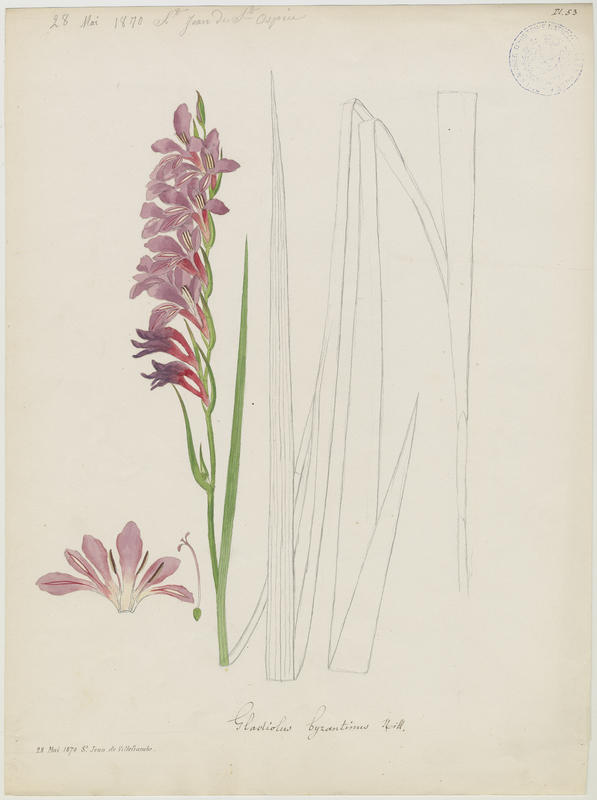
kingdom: Plantae
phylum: Tracheophyta
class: Liliopsida
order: Asparagales
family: Iridaceae
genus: Gladiolus
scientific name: Gladiolus byzantinus
